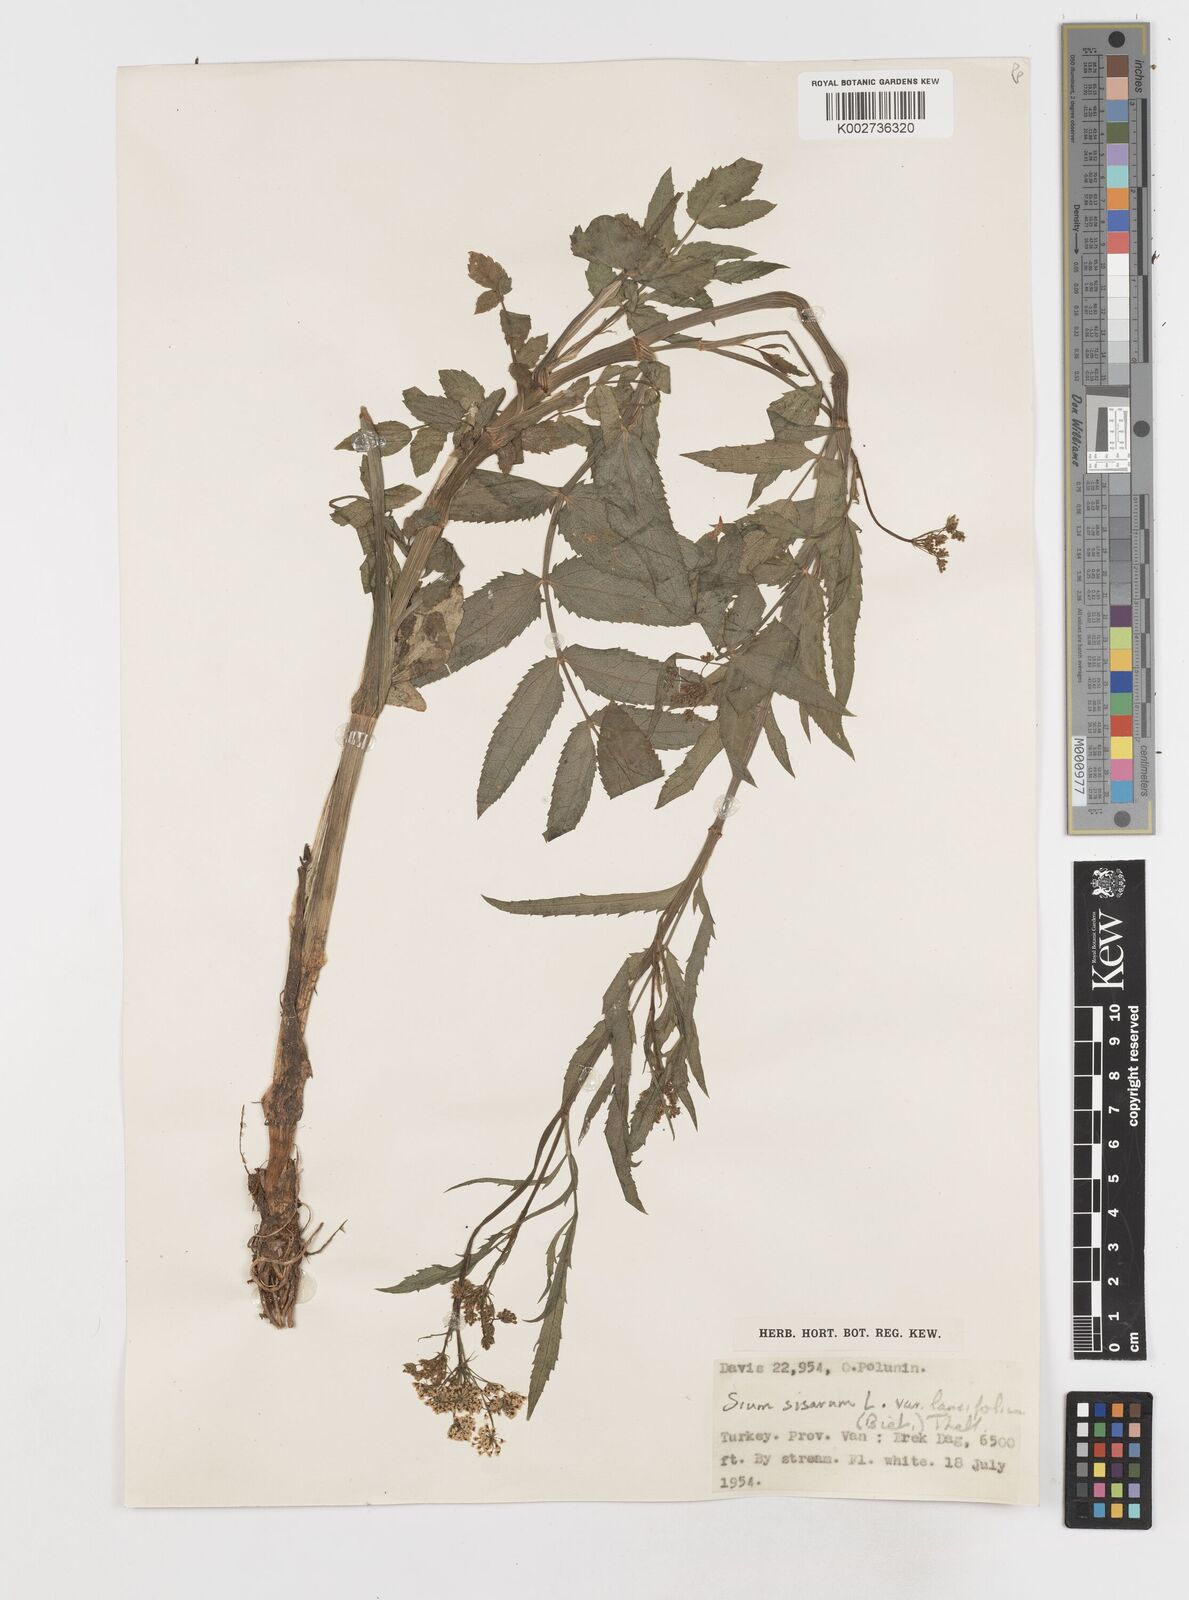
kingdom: Plantae
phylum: Tracheophyta
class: Magnoliopsida
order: Apiales
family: Apiaceae
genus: Sium
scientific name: Sium sisarum
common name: Skirret
